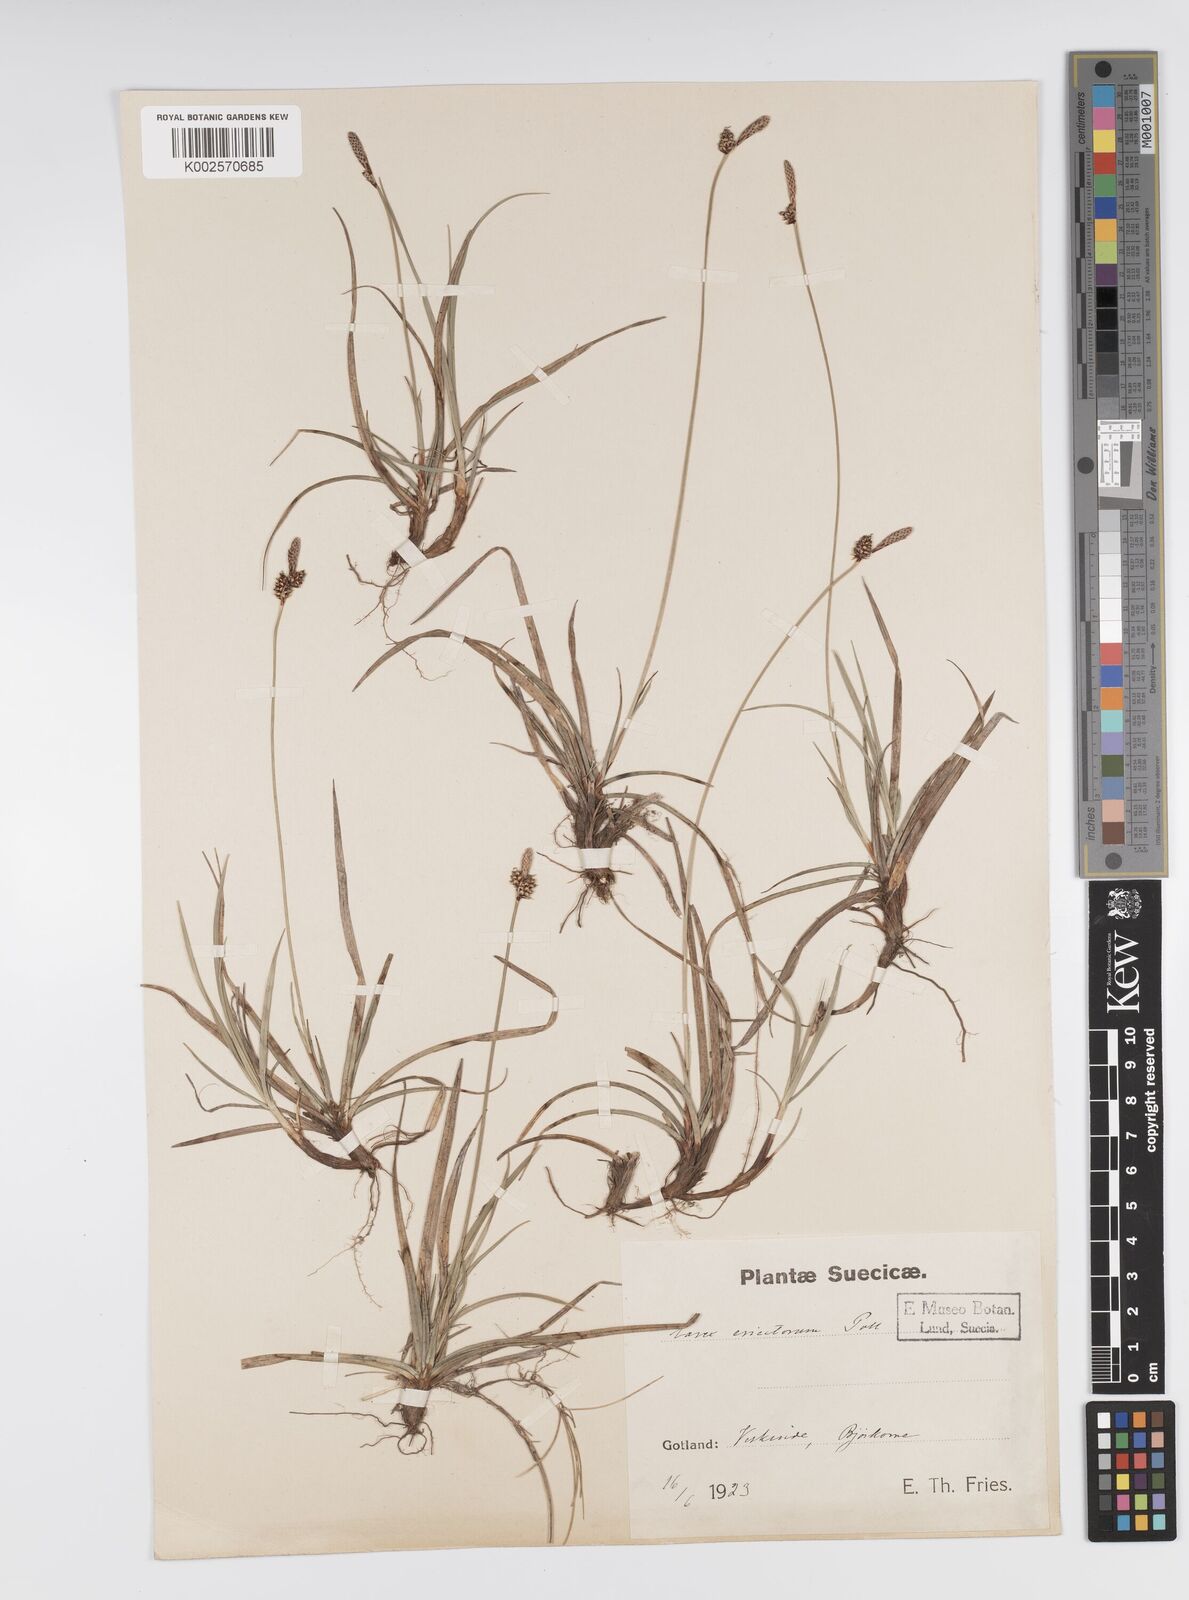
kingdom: Plantae
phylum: Tracheophyta
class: Liliopsida
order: Poales
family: Cyperaceae
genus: Carex
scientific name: Carex ericetorum
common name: Rare spring-sedge
